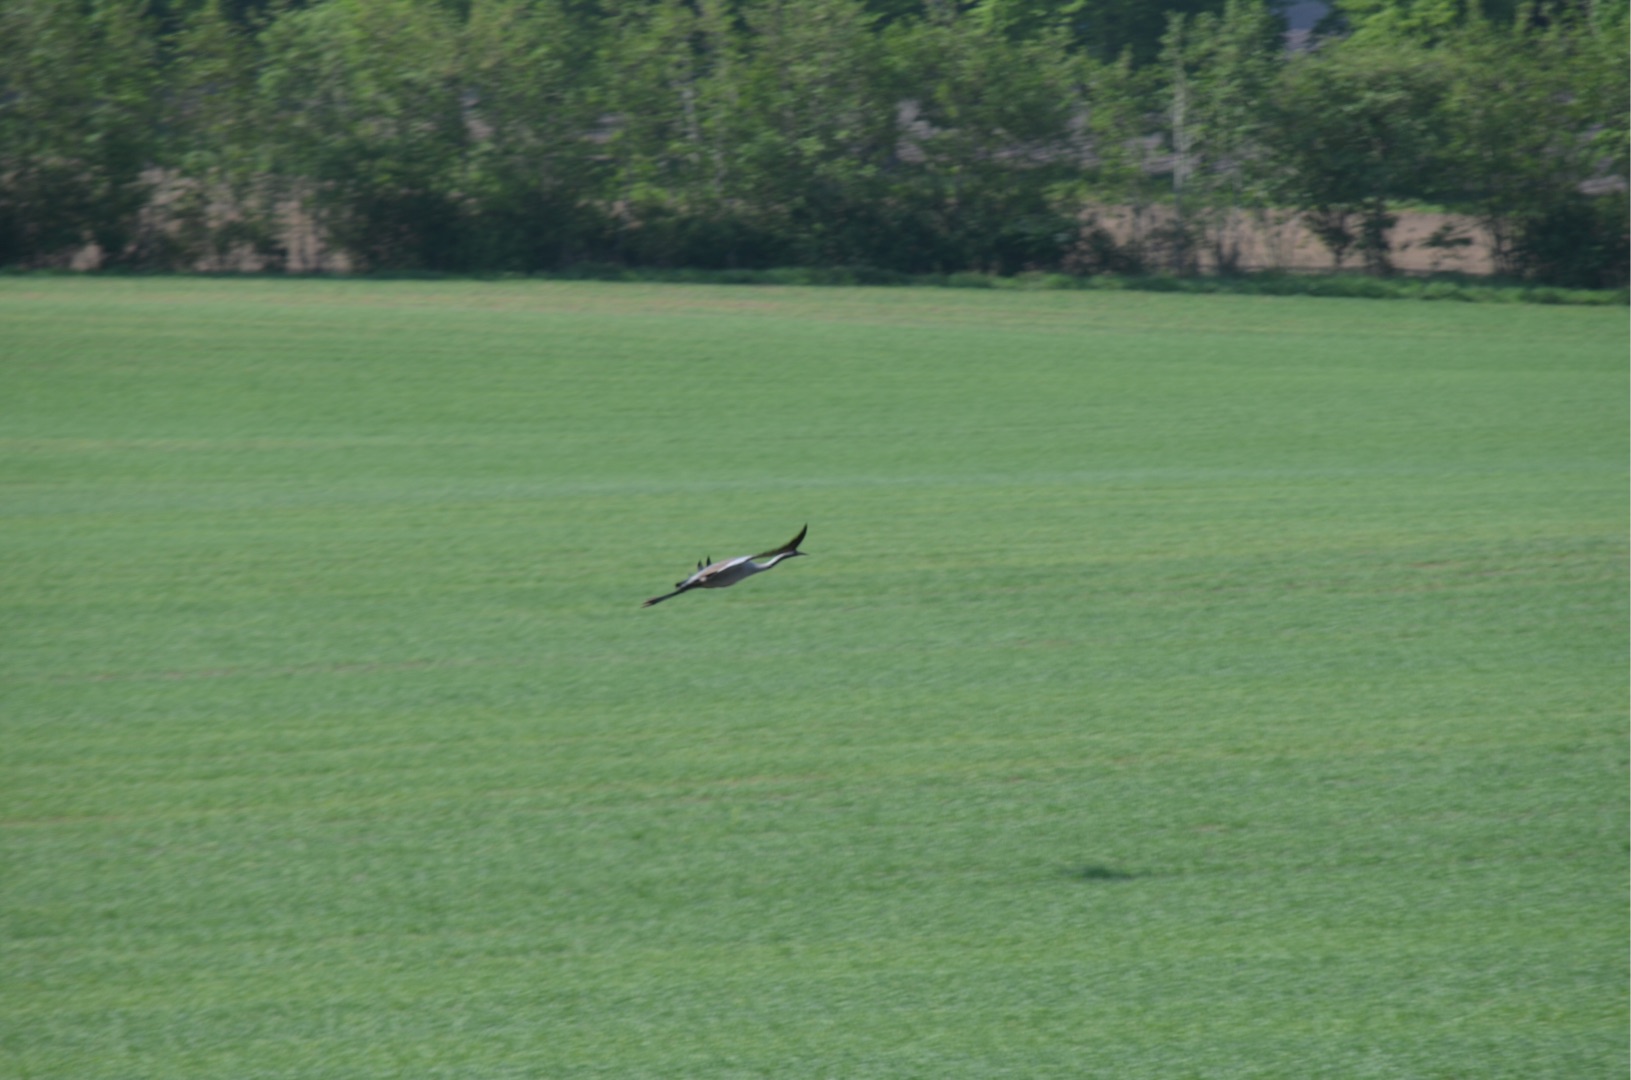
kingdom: Animalia
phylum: Chordata
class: Aves
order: Gruiformes
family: Gruidae
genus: Grus
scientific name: Grus grus
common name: Trane
